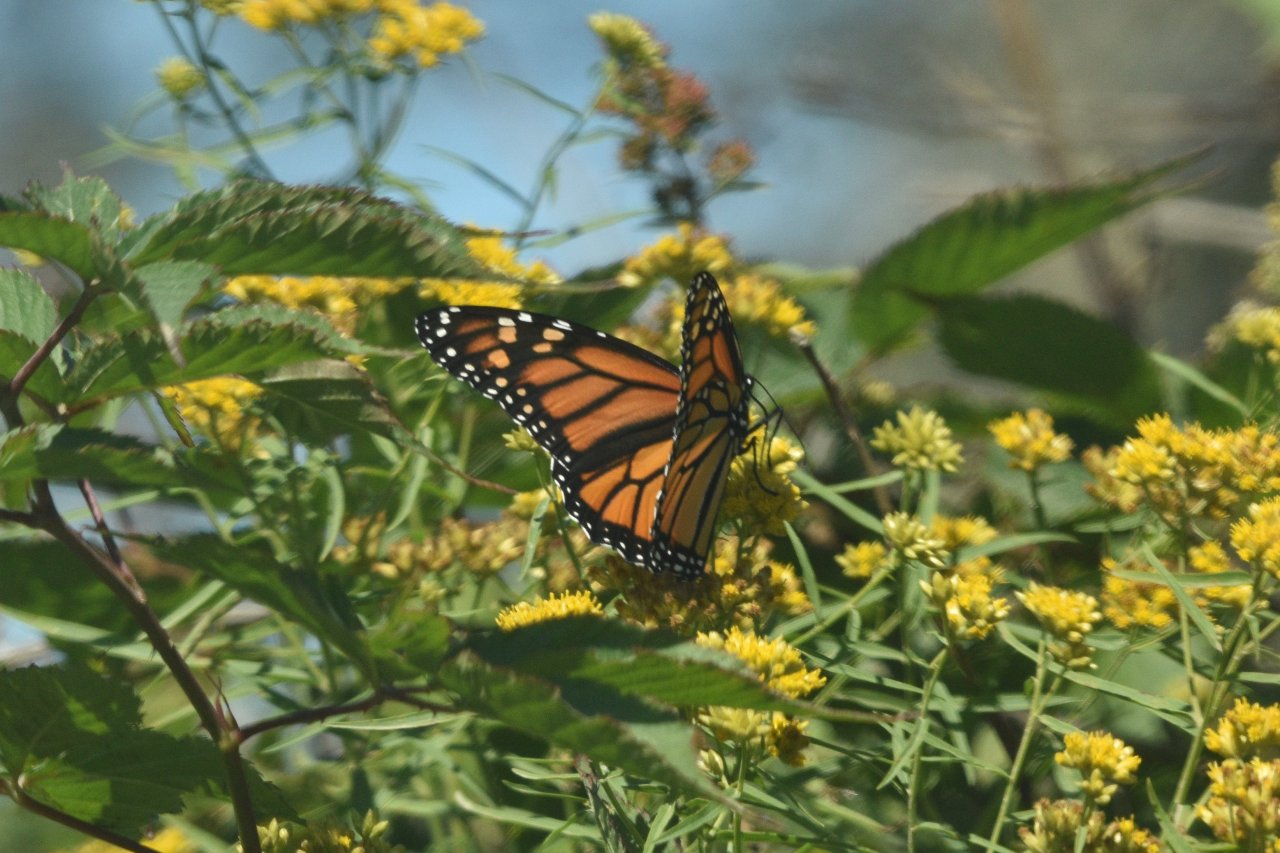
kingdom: Animalia
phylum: Arthropoda
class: Insecta
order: Lepidoptera
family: Nymphalidae
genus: Danaus
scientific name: Danaus plexippus
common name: Monarch
